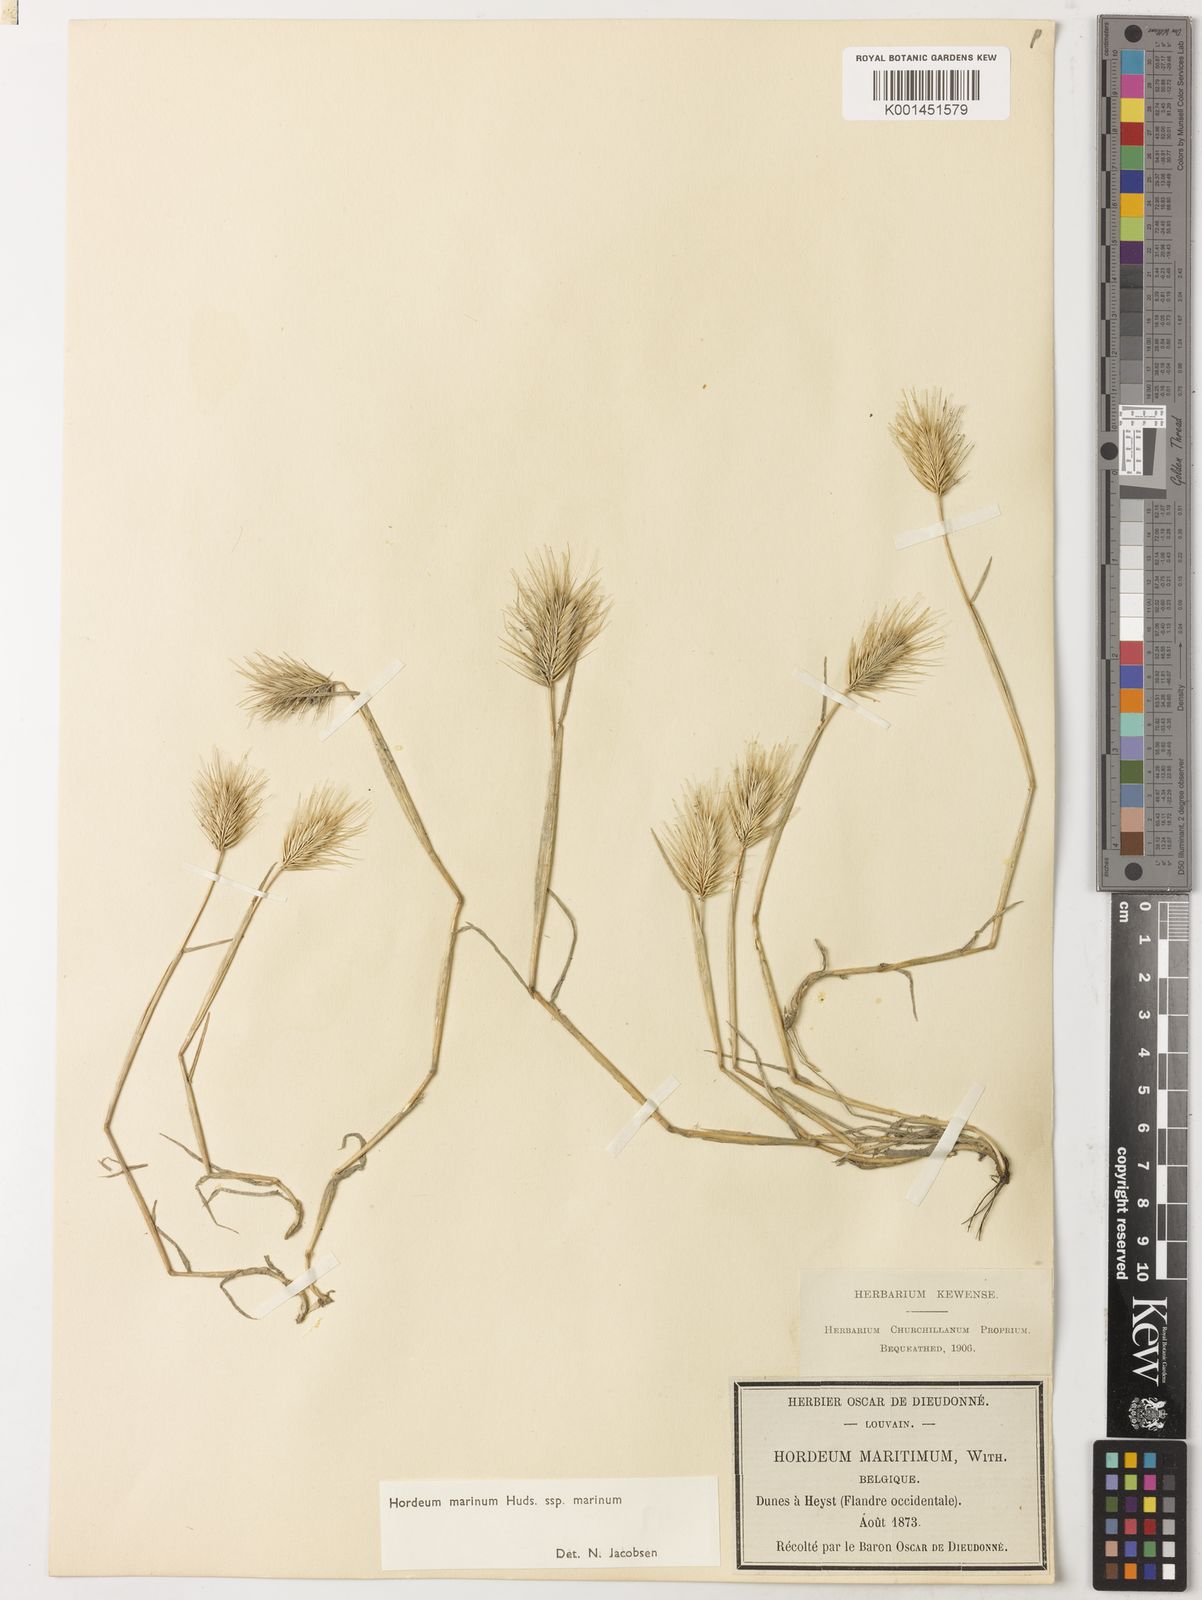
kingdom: Plantae
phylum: Tracheophyta
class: Liliopsida
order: Poales
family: Poaceae
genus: Hordeum
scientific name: Hordeum marinum
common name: Sea barley
